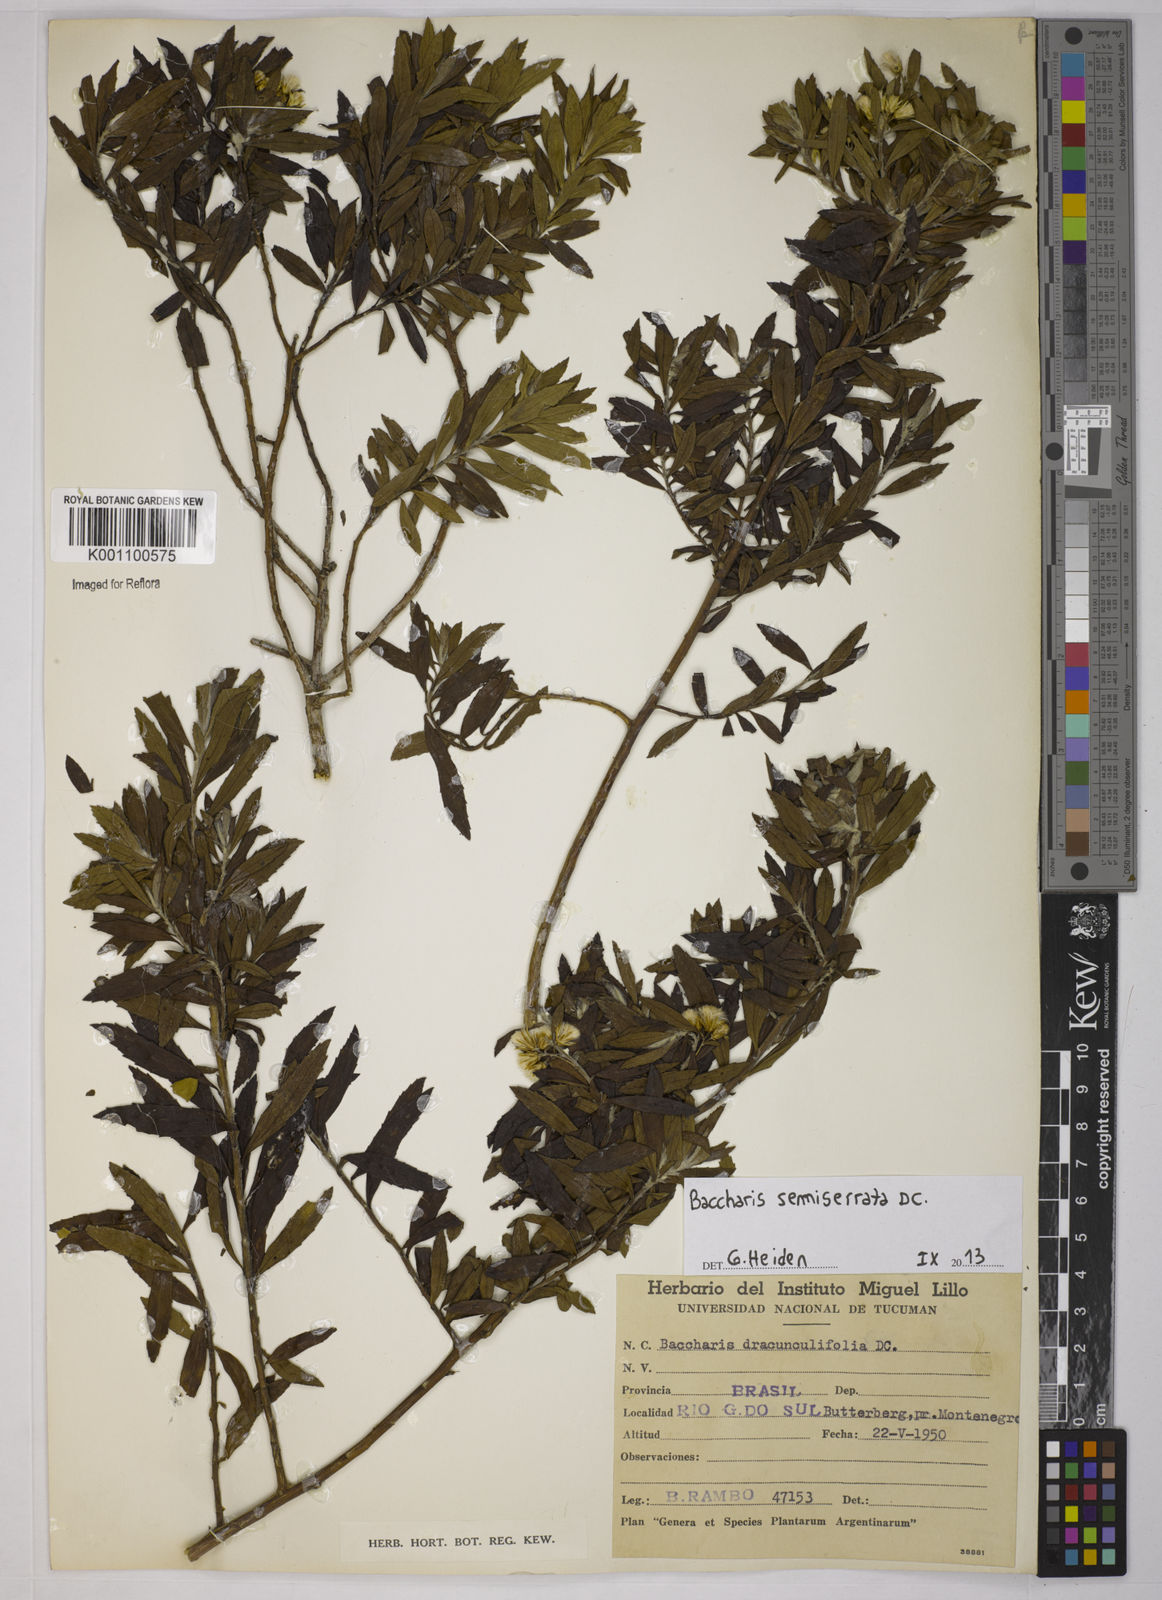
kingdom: Plantae
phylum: Tracheophyta
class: Magnoliopsida
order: Asterales
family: Asteraceae
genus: Baccharis
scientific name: Baccharis gnidiifolia
